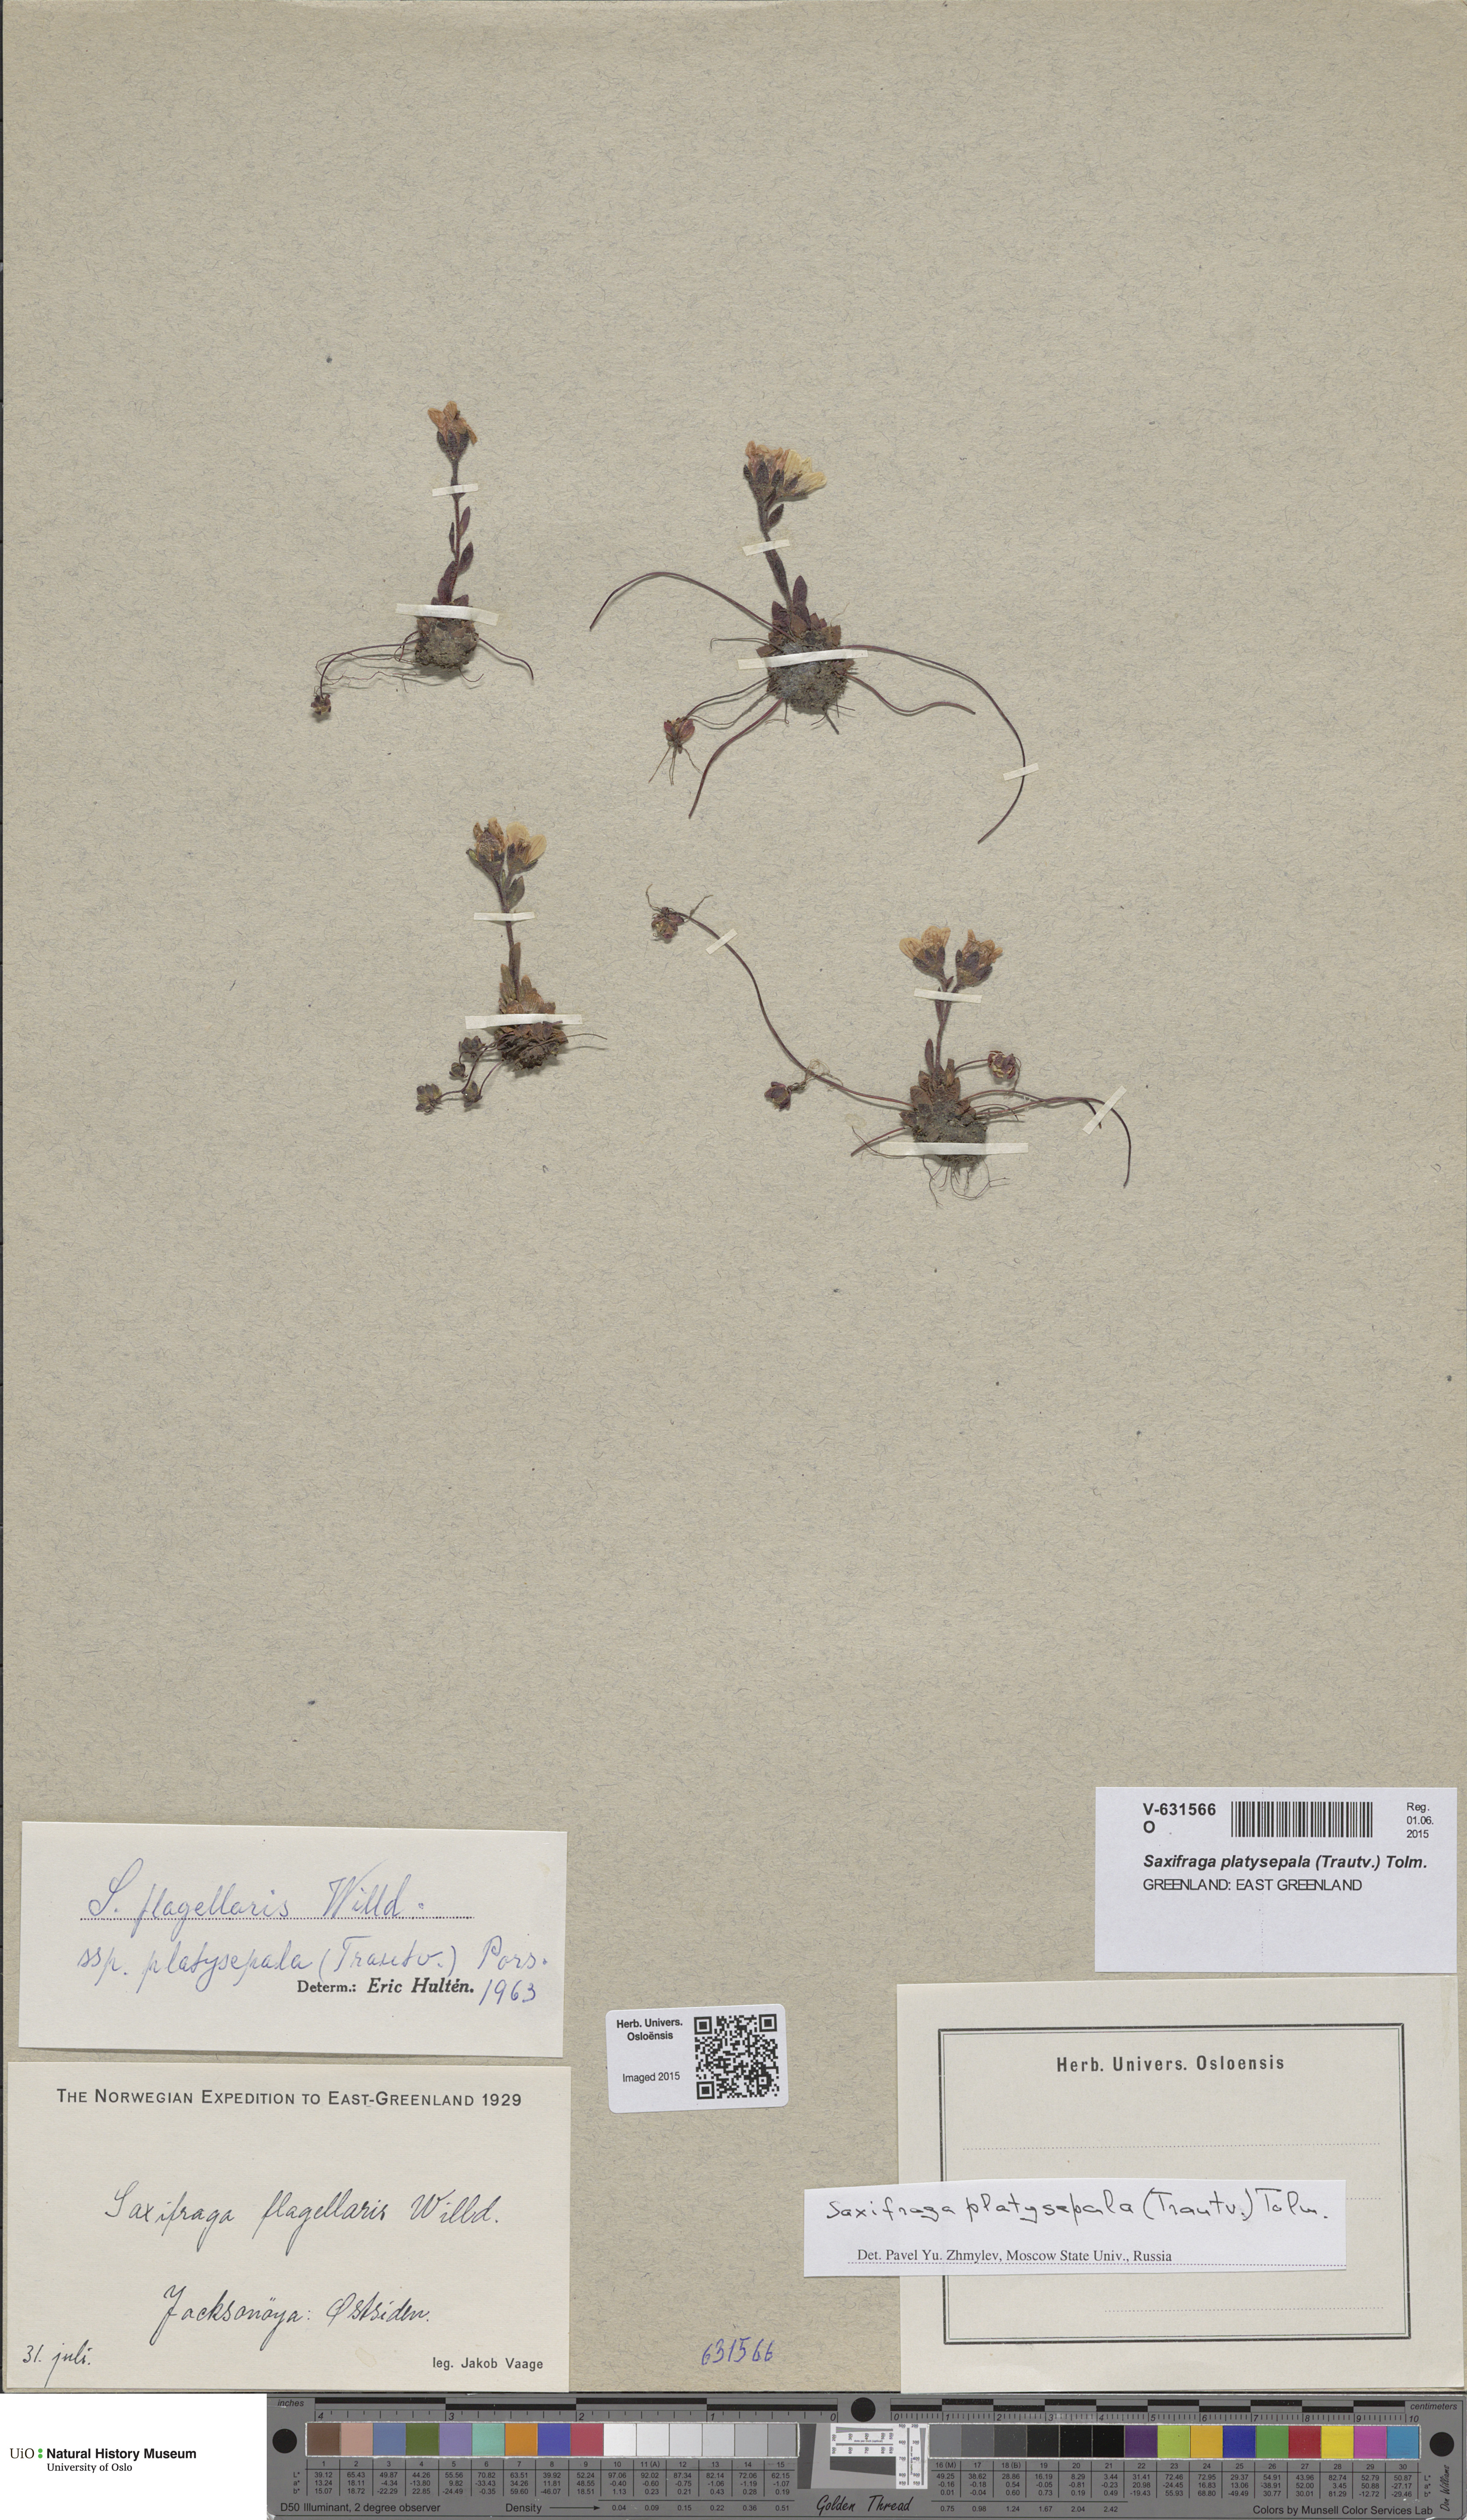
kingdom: Plantae
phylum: Tracheophyta
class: Magnoliopsida
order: Saxifragales
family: Saxifragaceae
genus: Saxifraga
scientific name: Saxifraga platysepala
